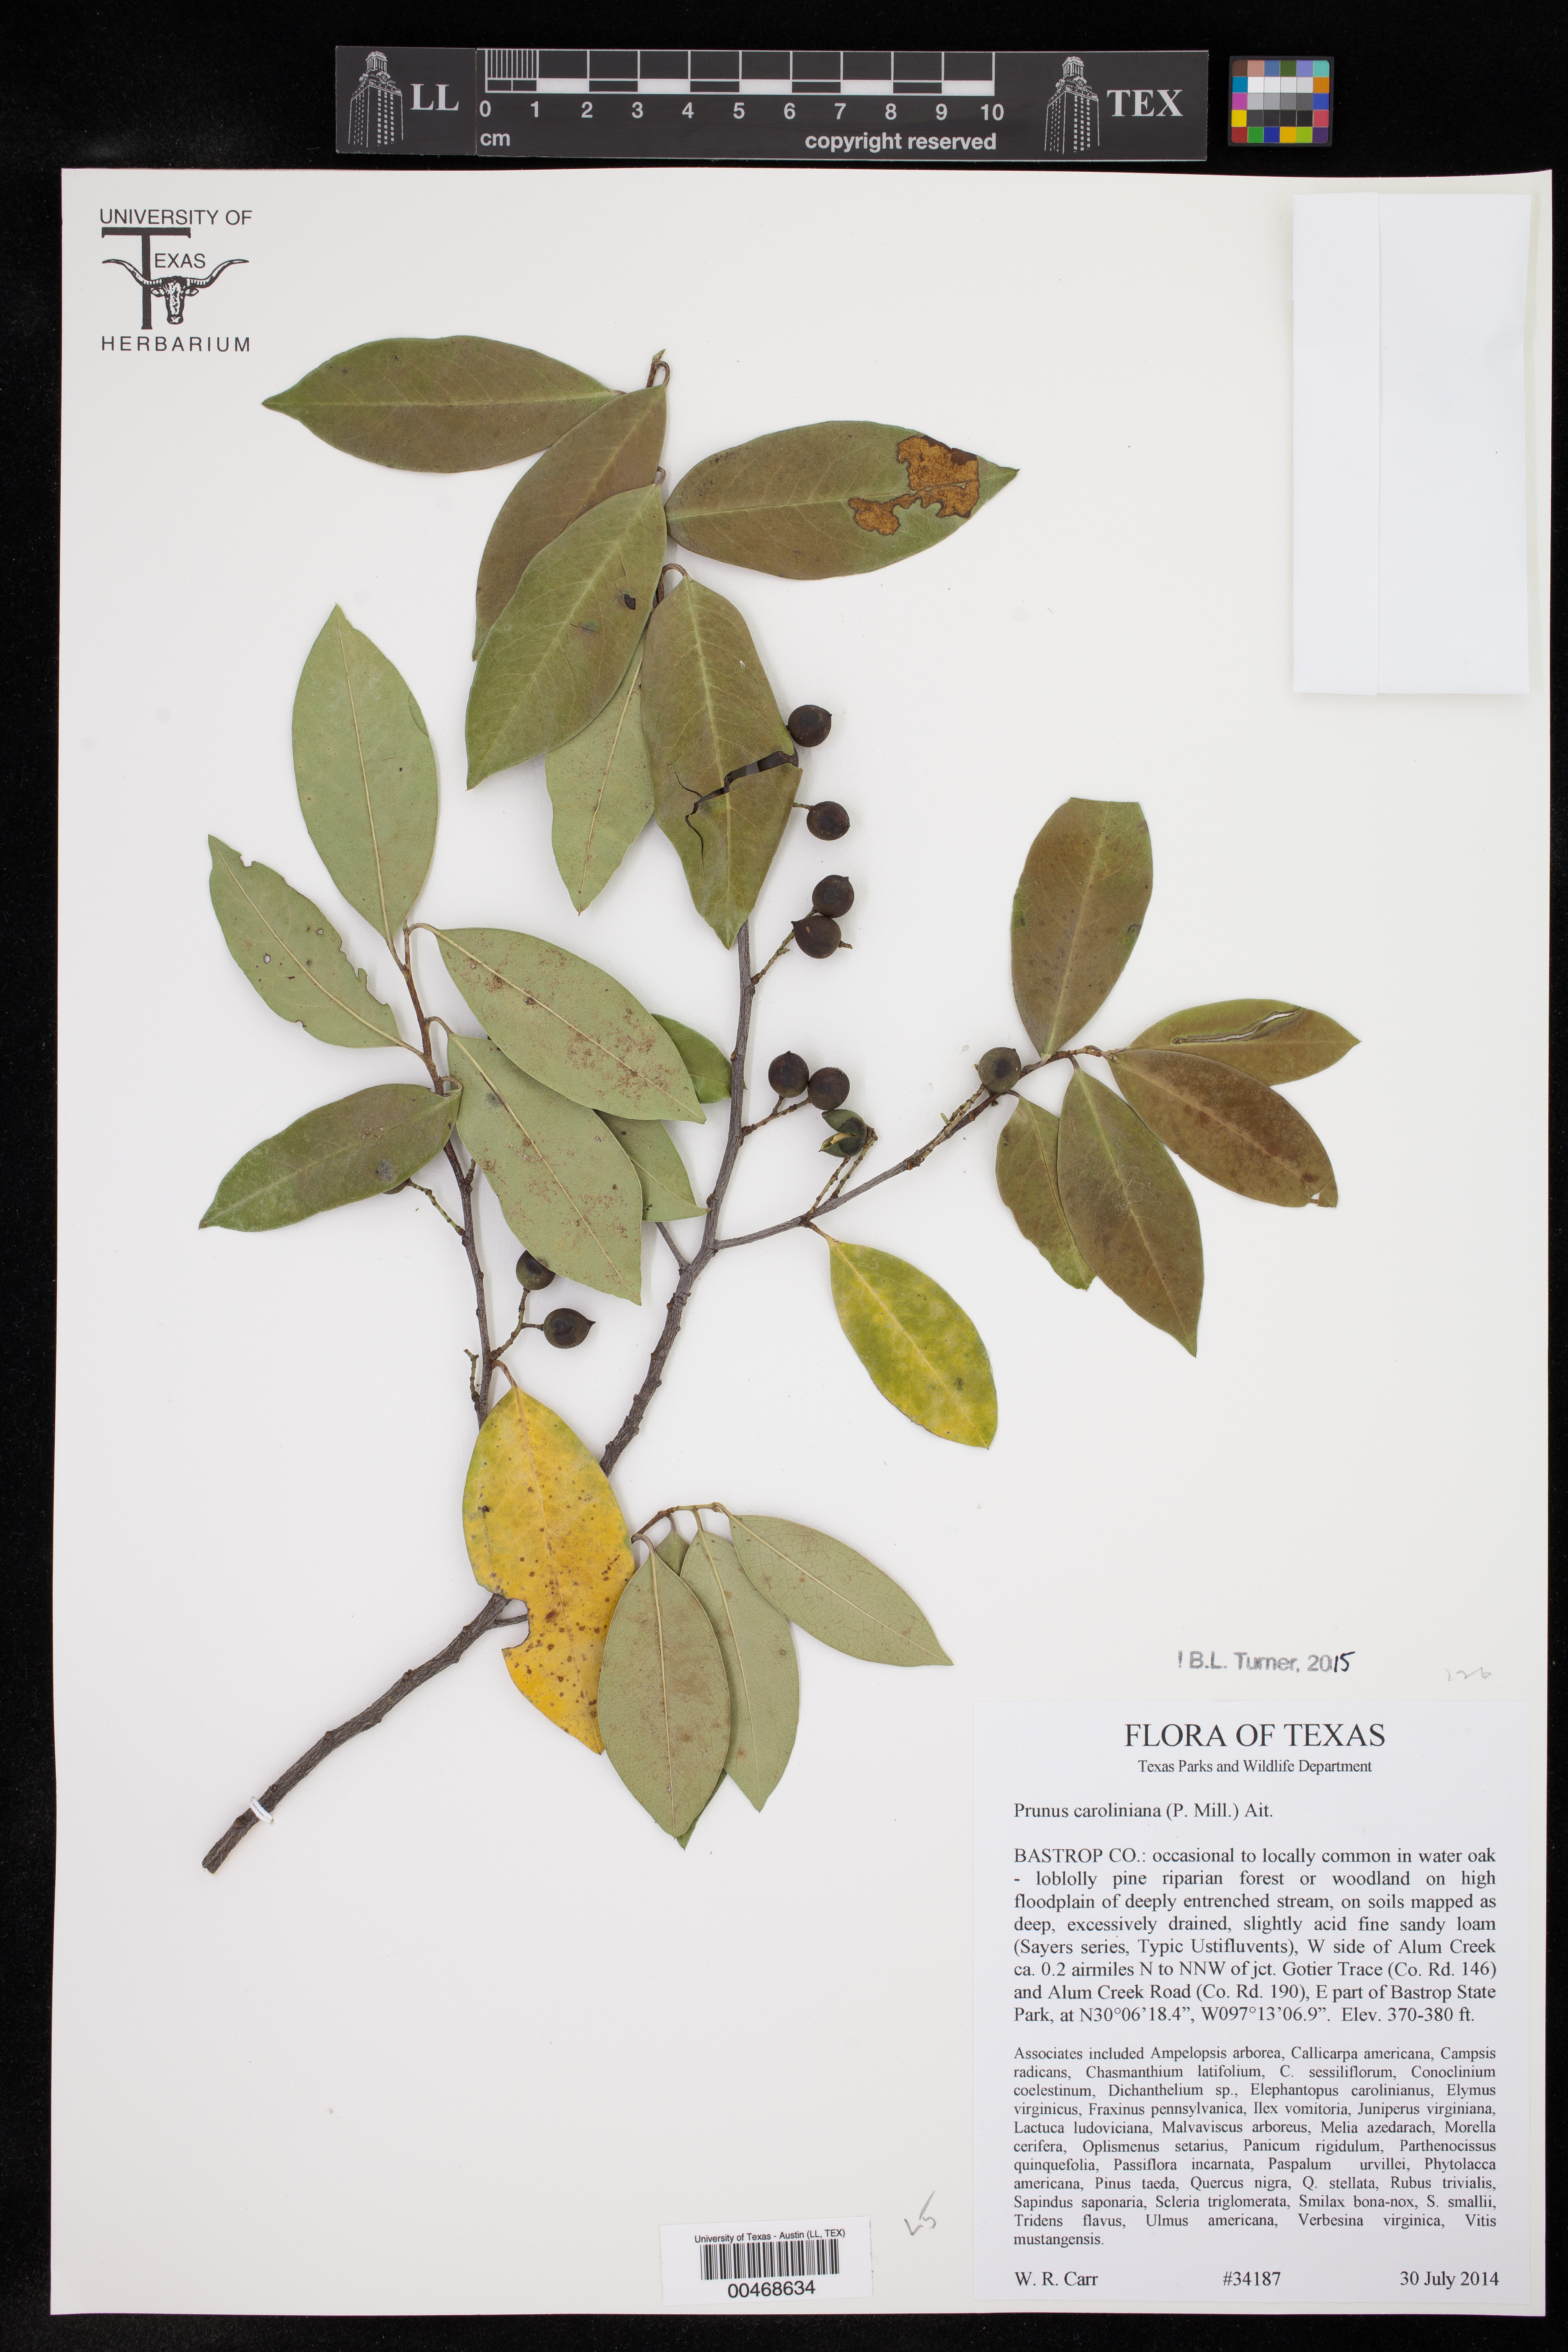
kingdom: Plantae
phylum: Tracheophyta
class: Magnoliopsida
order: Rosales
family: Rosaceae
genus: Prunus
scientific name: Prunus caroliniana
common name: Carolina laurel cherry
